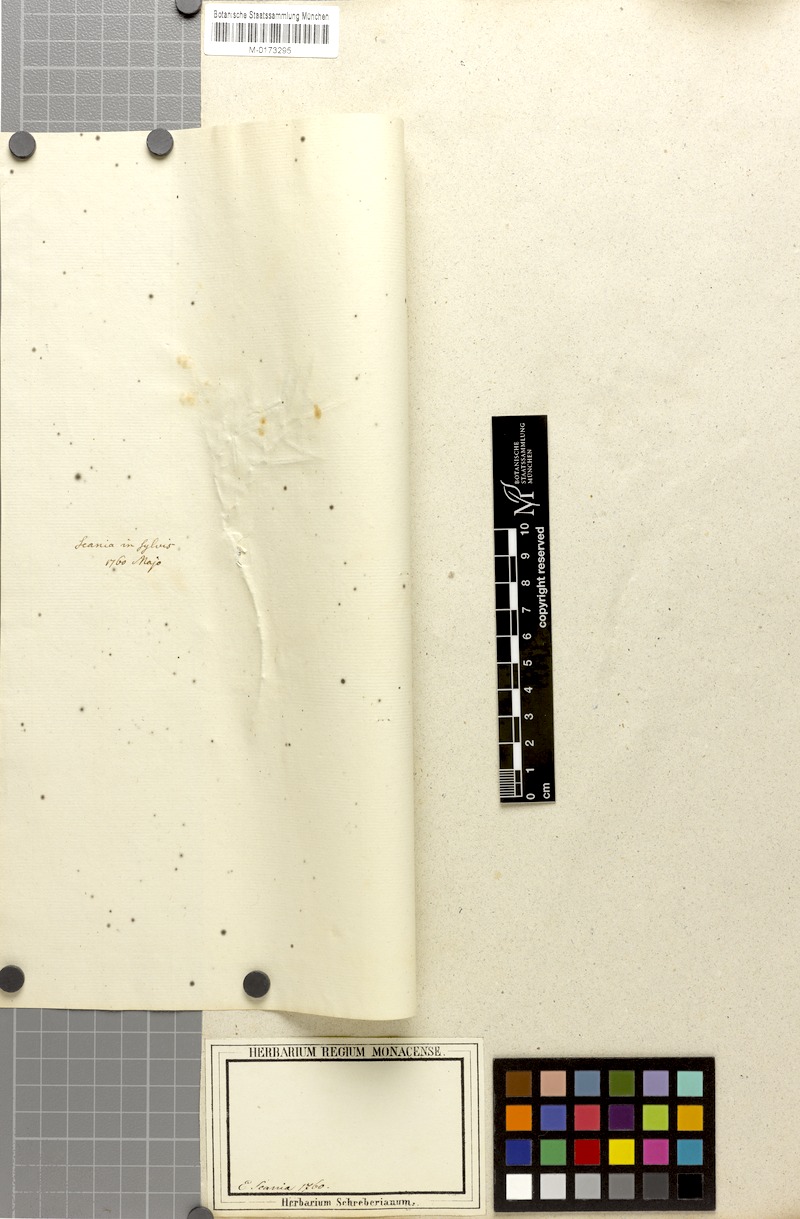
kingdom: Plantae
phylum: Tracheophyta
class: Magnoliopsida
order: Ericales
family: Ericaceae
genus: Andromeda
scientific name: Andromeda polifolia
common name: Bog-rosemary
